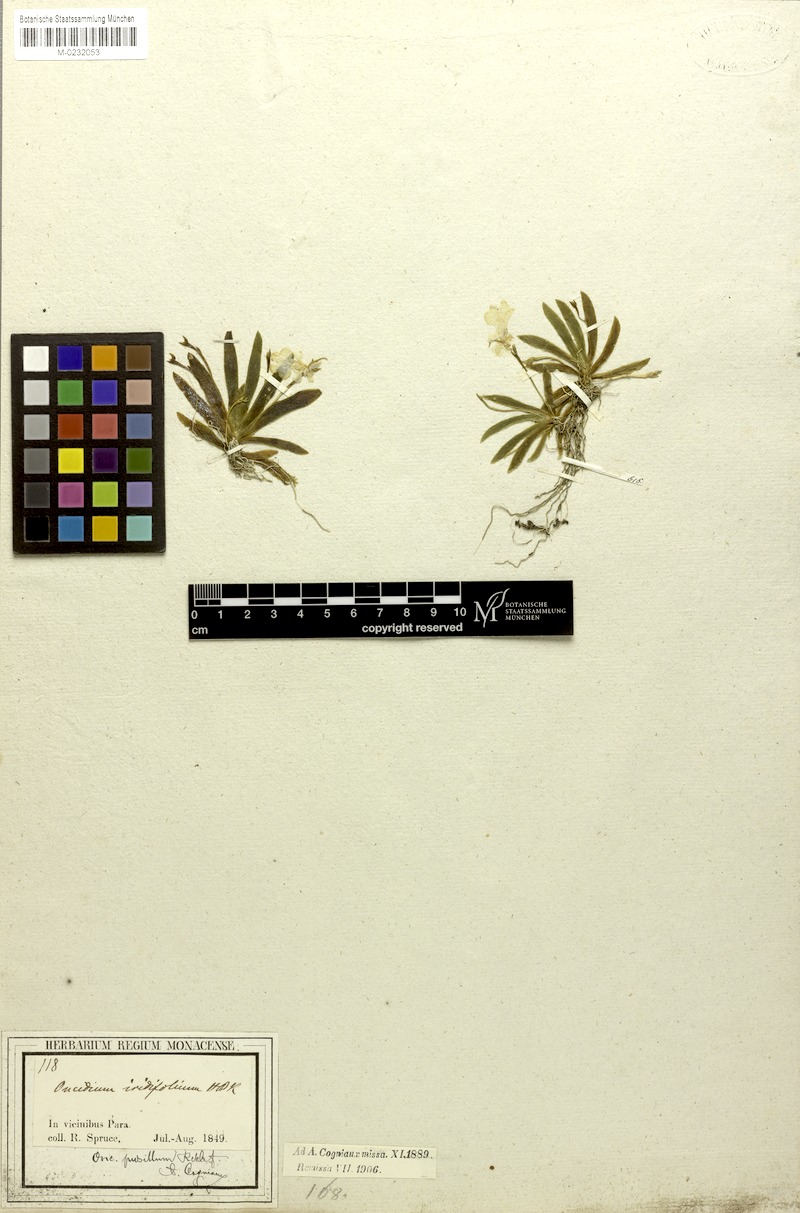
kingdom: Plantae
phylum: Tracheophyta
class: Liliopsida
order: Asparagales
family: Orchidaceae
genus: Erycina
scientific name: Erycina pusilla
